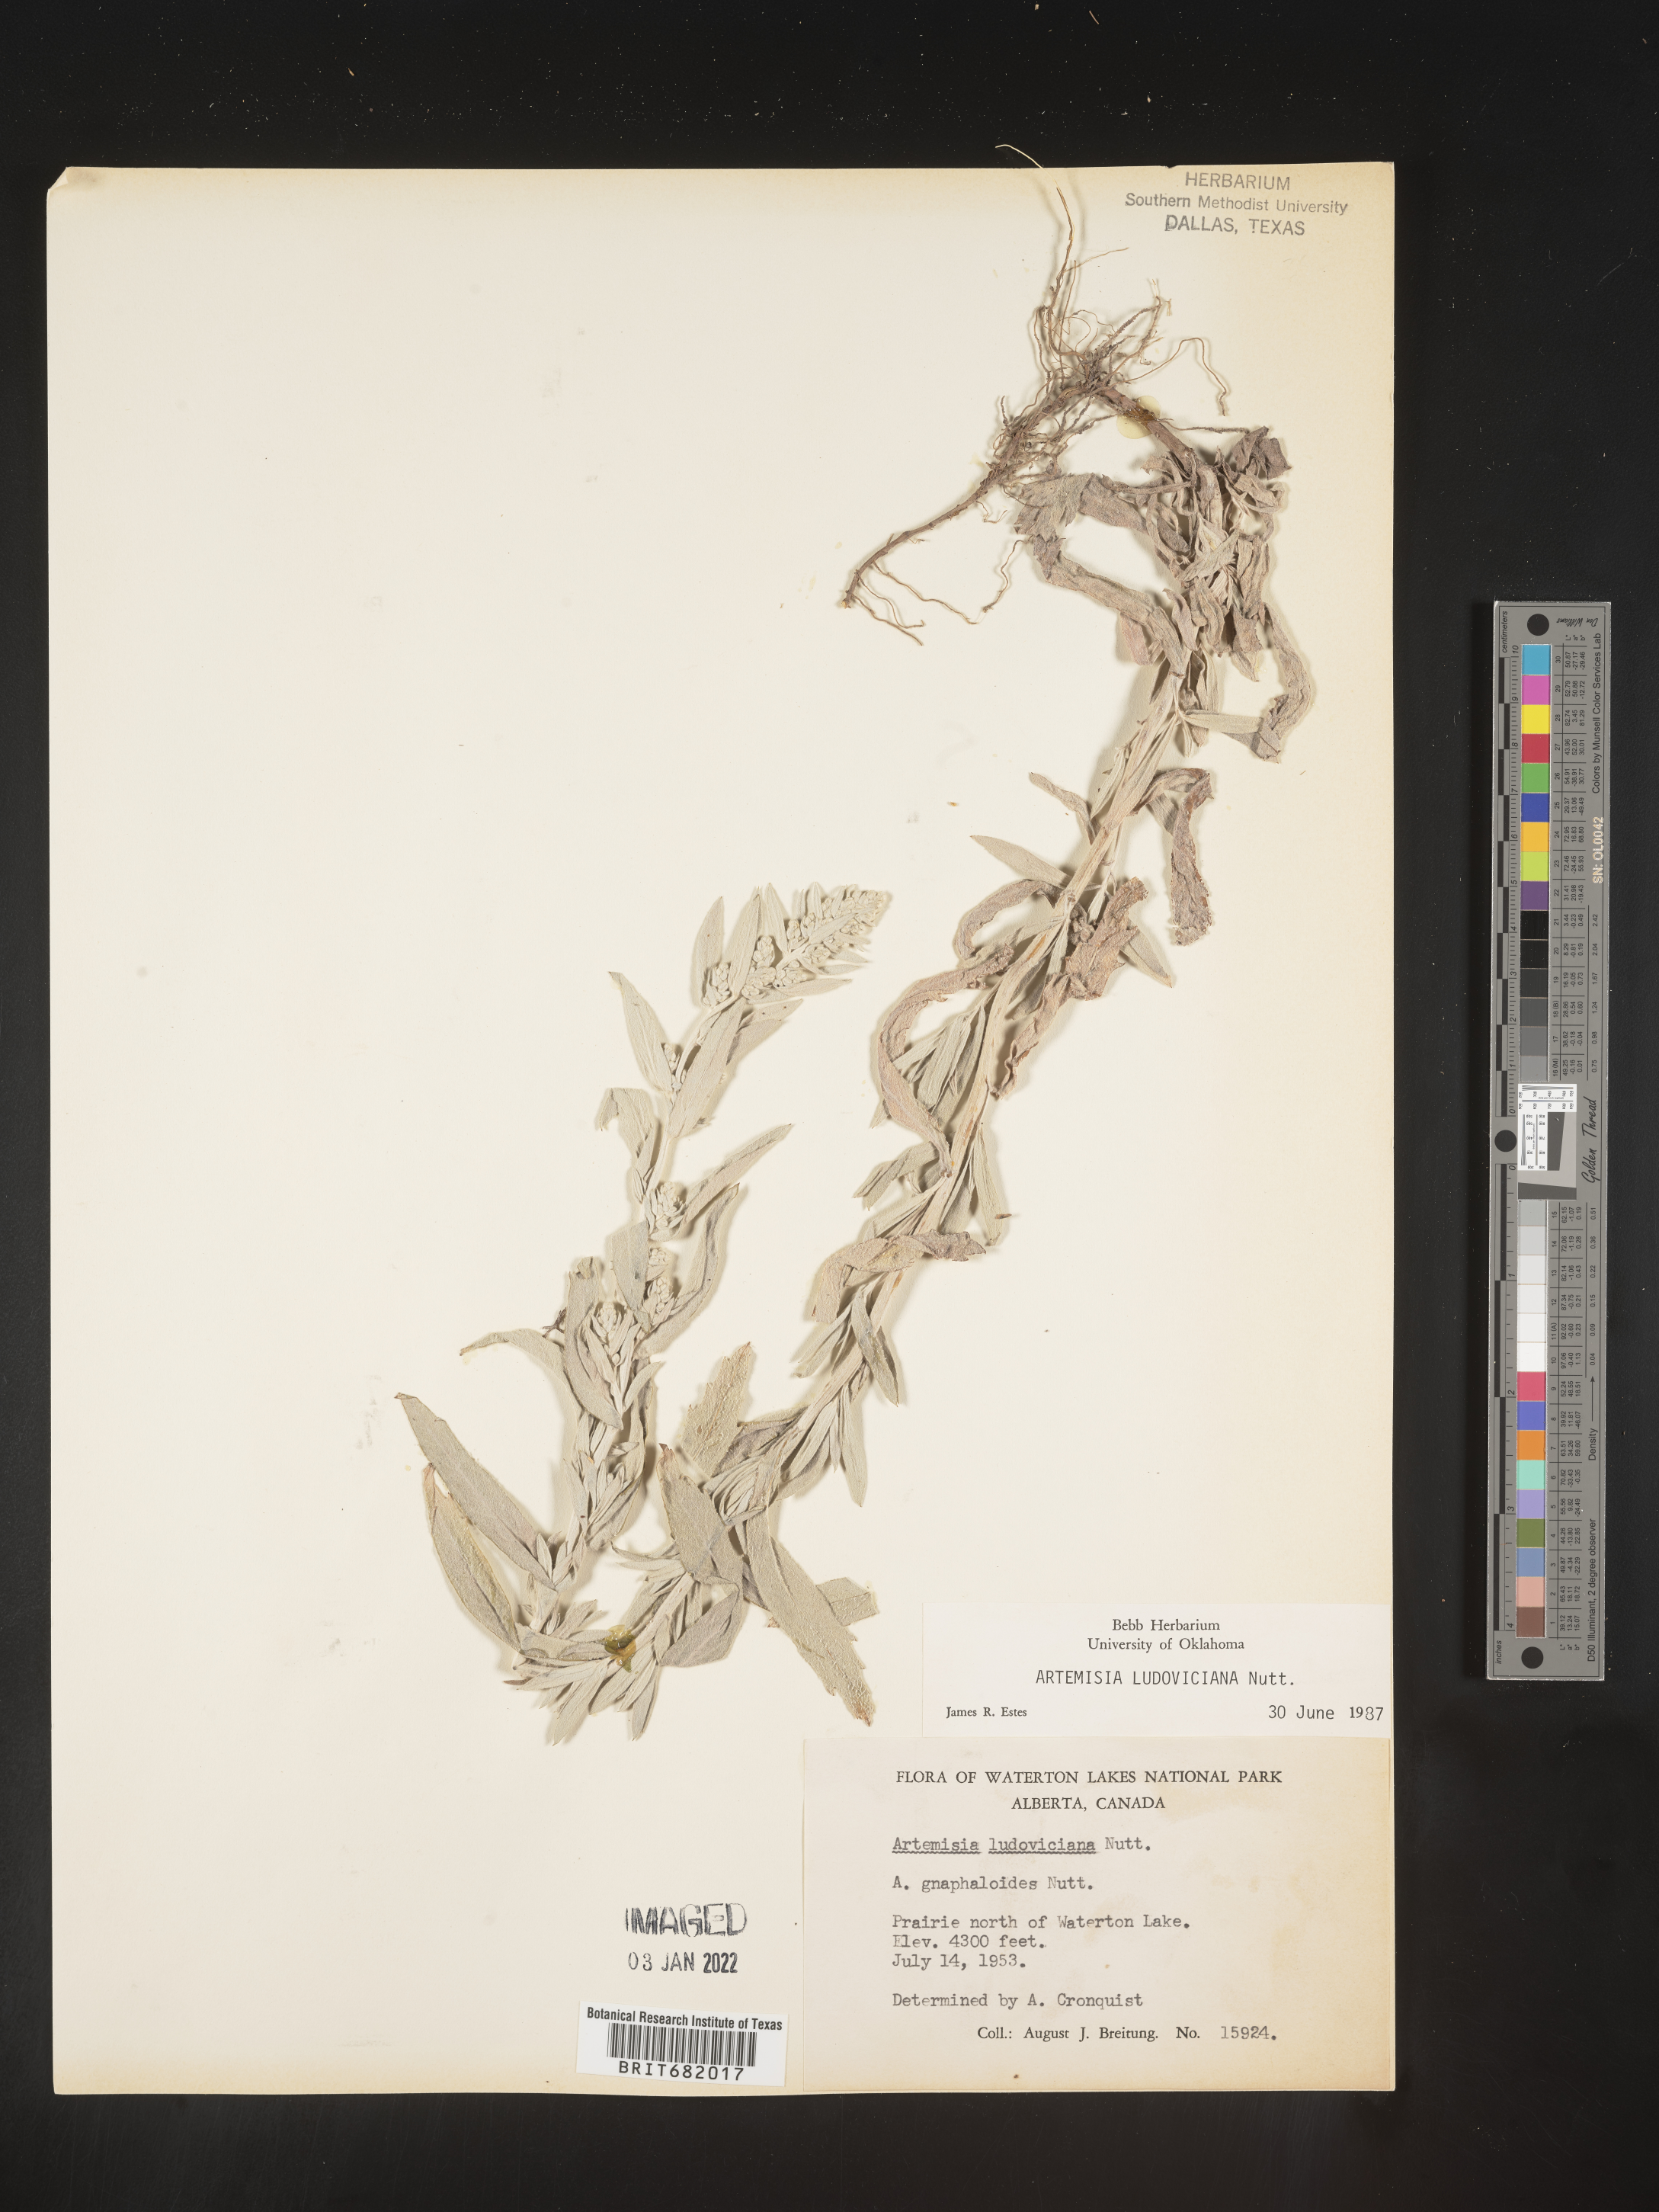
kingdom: Plantae
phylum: Tracheophyta
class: Magnoliopsida
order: Asterales
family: Asteraceae
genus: Artemisia
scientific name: Artemisia ludoviciana
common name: Western mugwort
